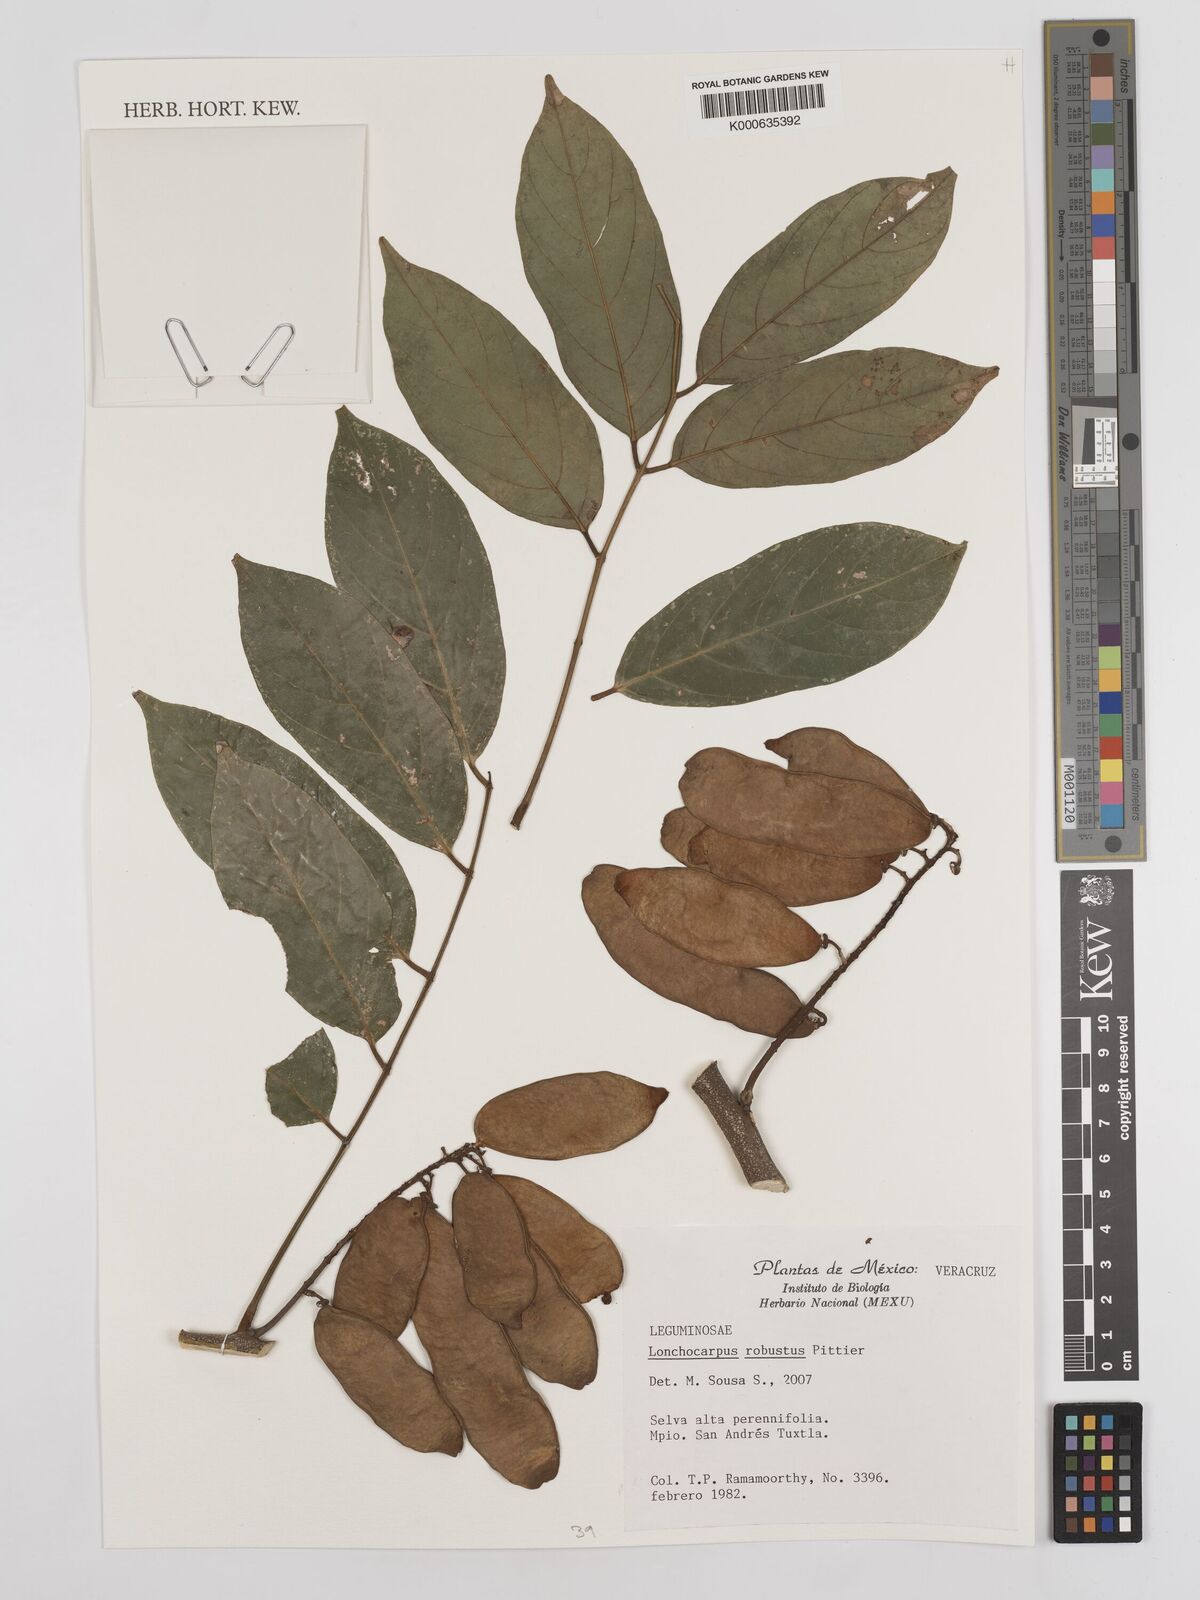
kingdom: Plantae
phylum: Tracheophyta
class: Magnoliopsida
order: Fabales
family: Fabaceae
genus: Lonchocarpus
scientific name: Lonchocarpus robustus
